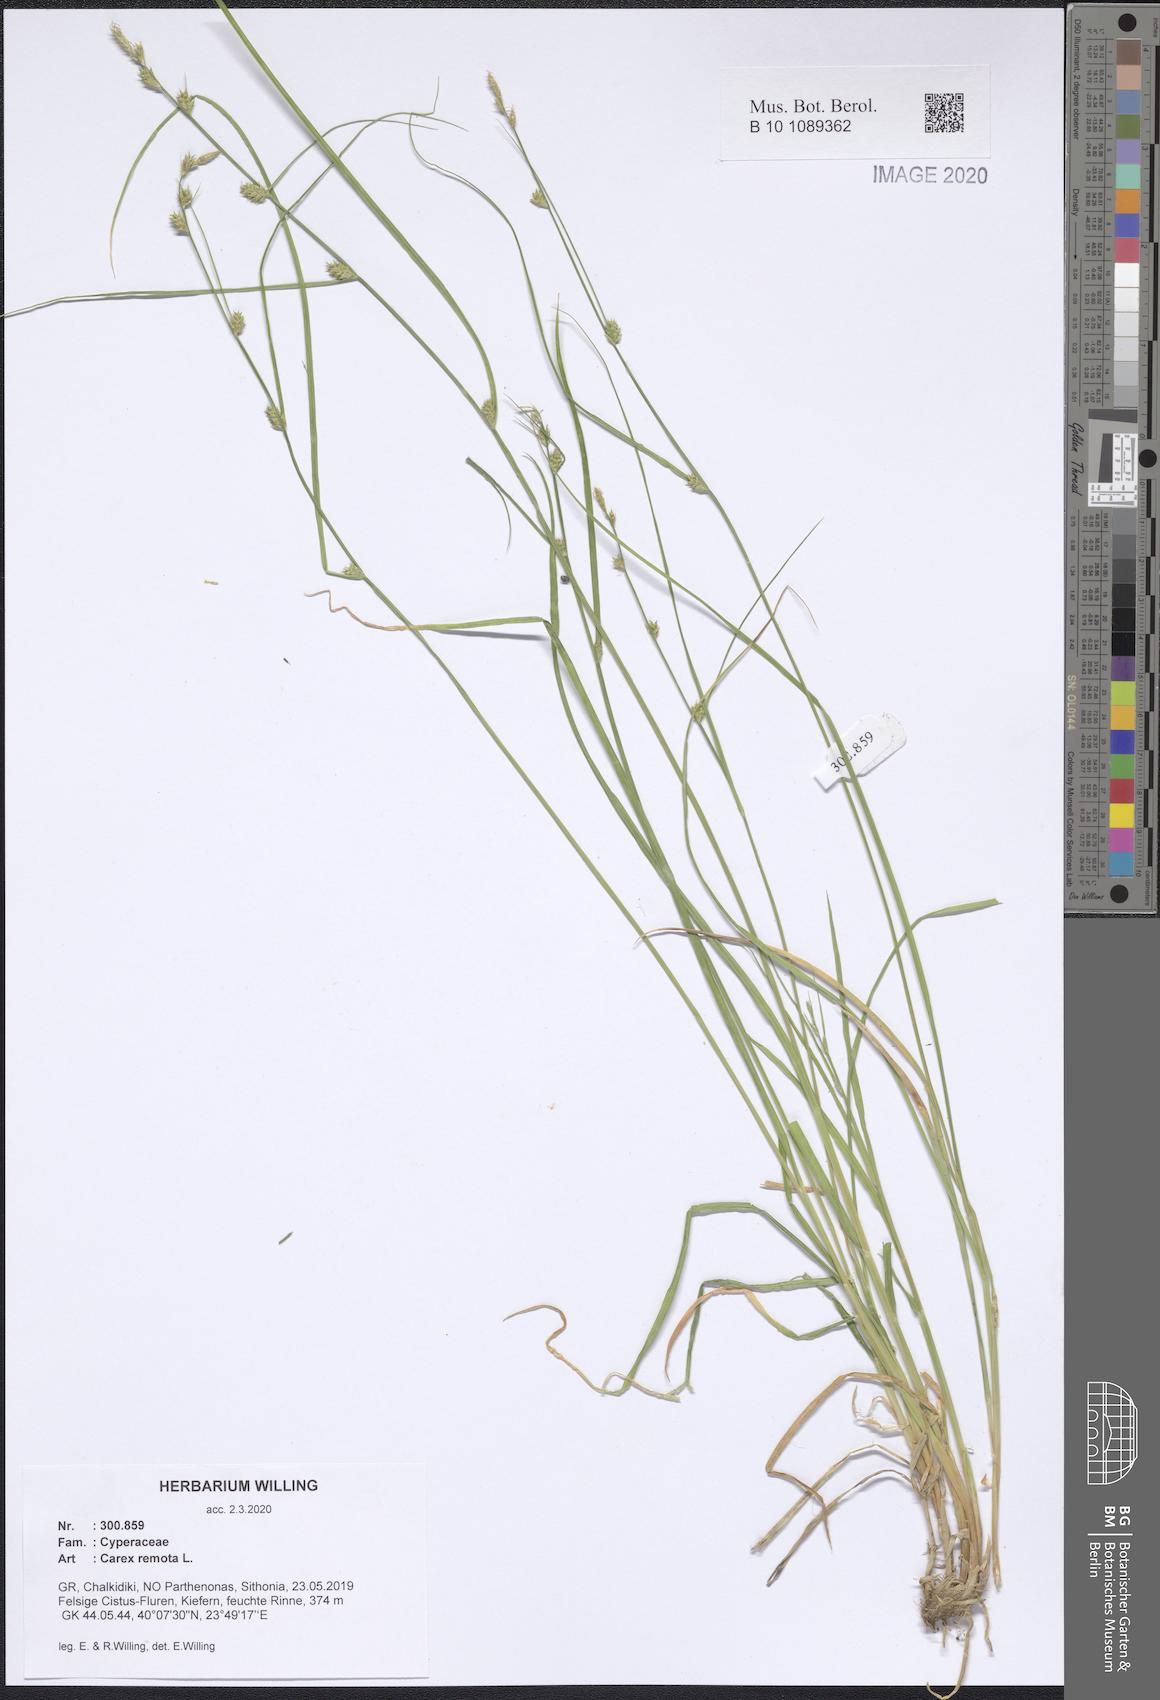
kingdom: Plantae
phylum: Tracheophyta
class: Liliopsida
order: Poales
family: Cyperaceae
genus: Carex
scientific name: Carex remota
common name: Remote sedge
